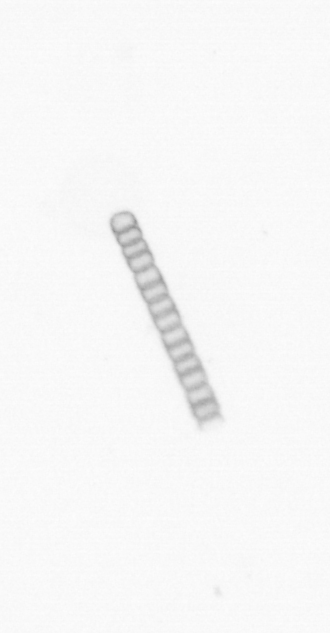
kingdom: Chromista
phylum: Ochrophyta
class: Bacillariophyceae
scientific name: Bacillariophyceae
